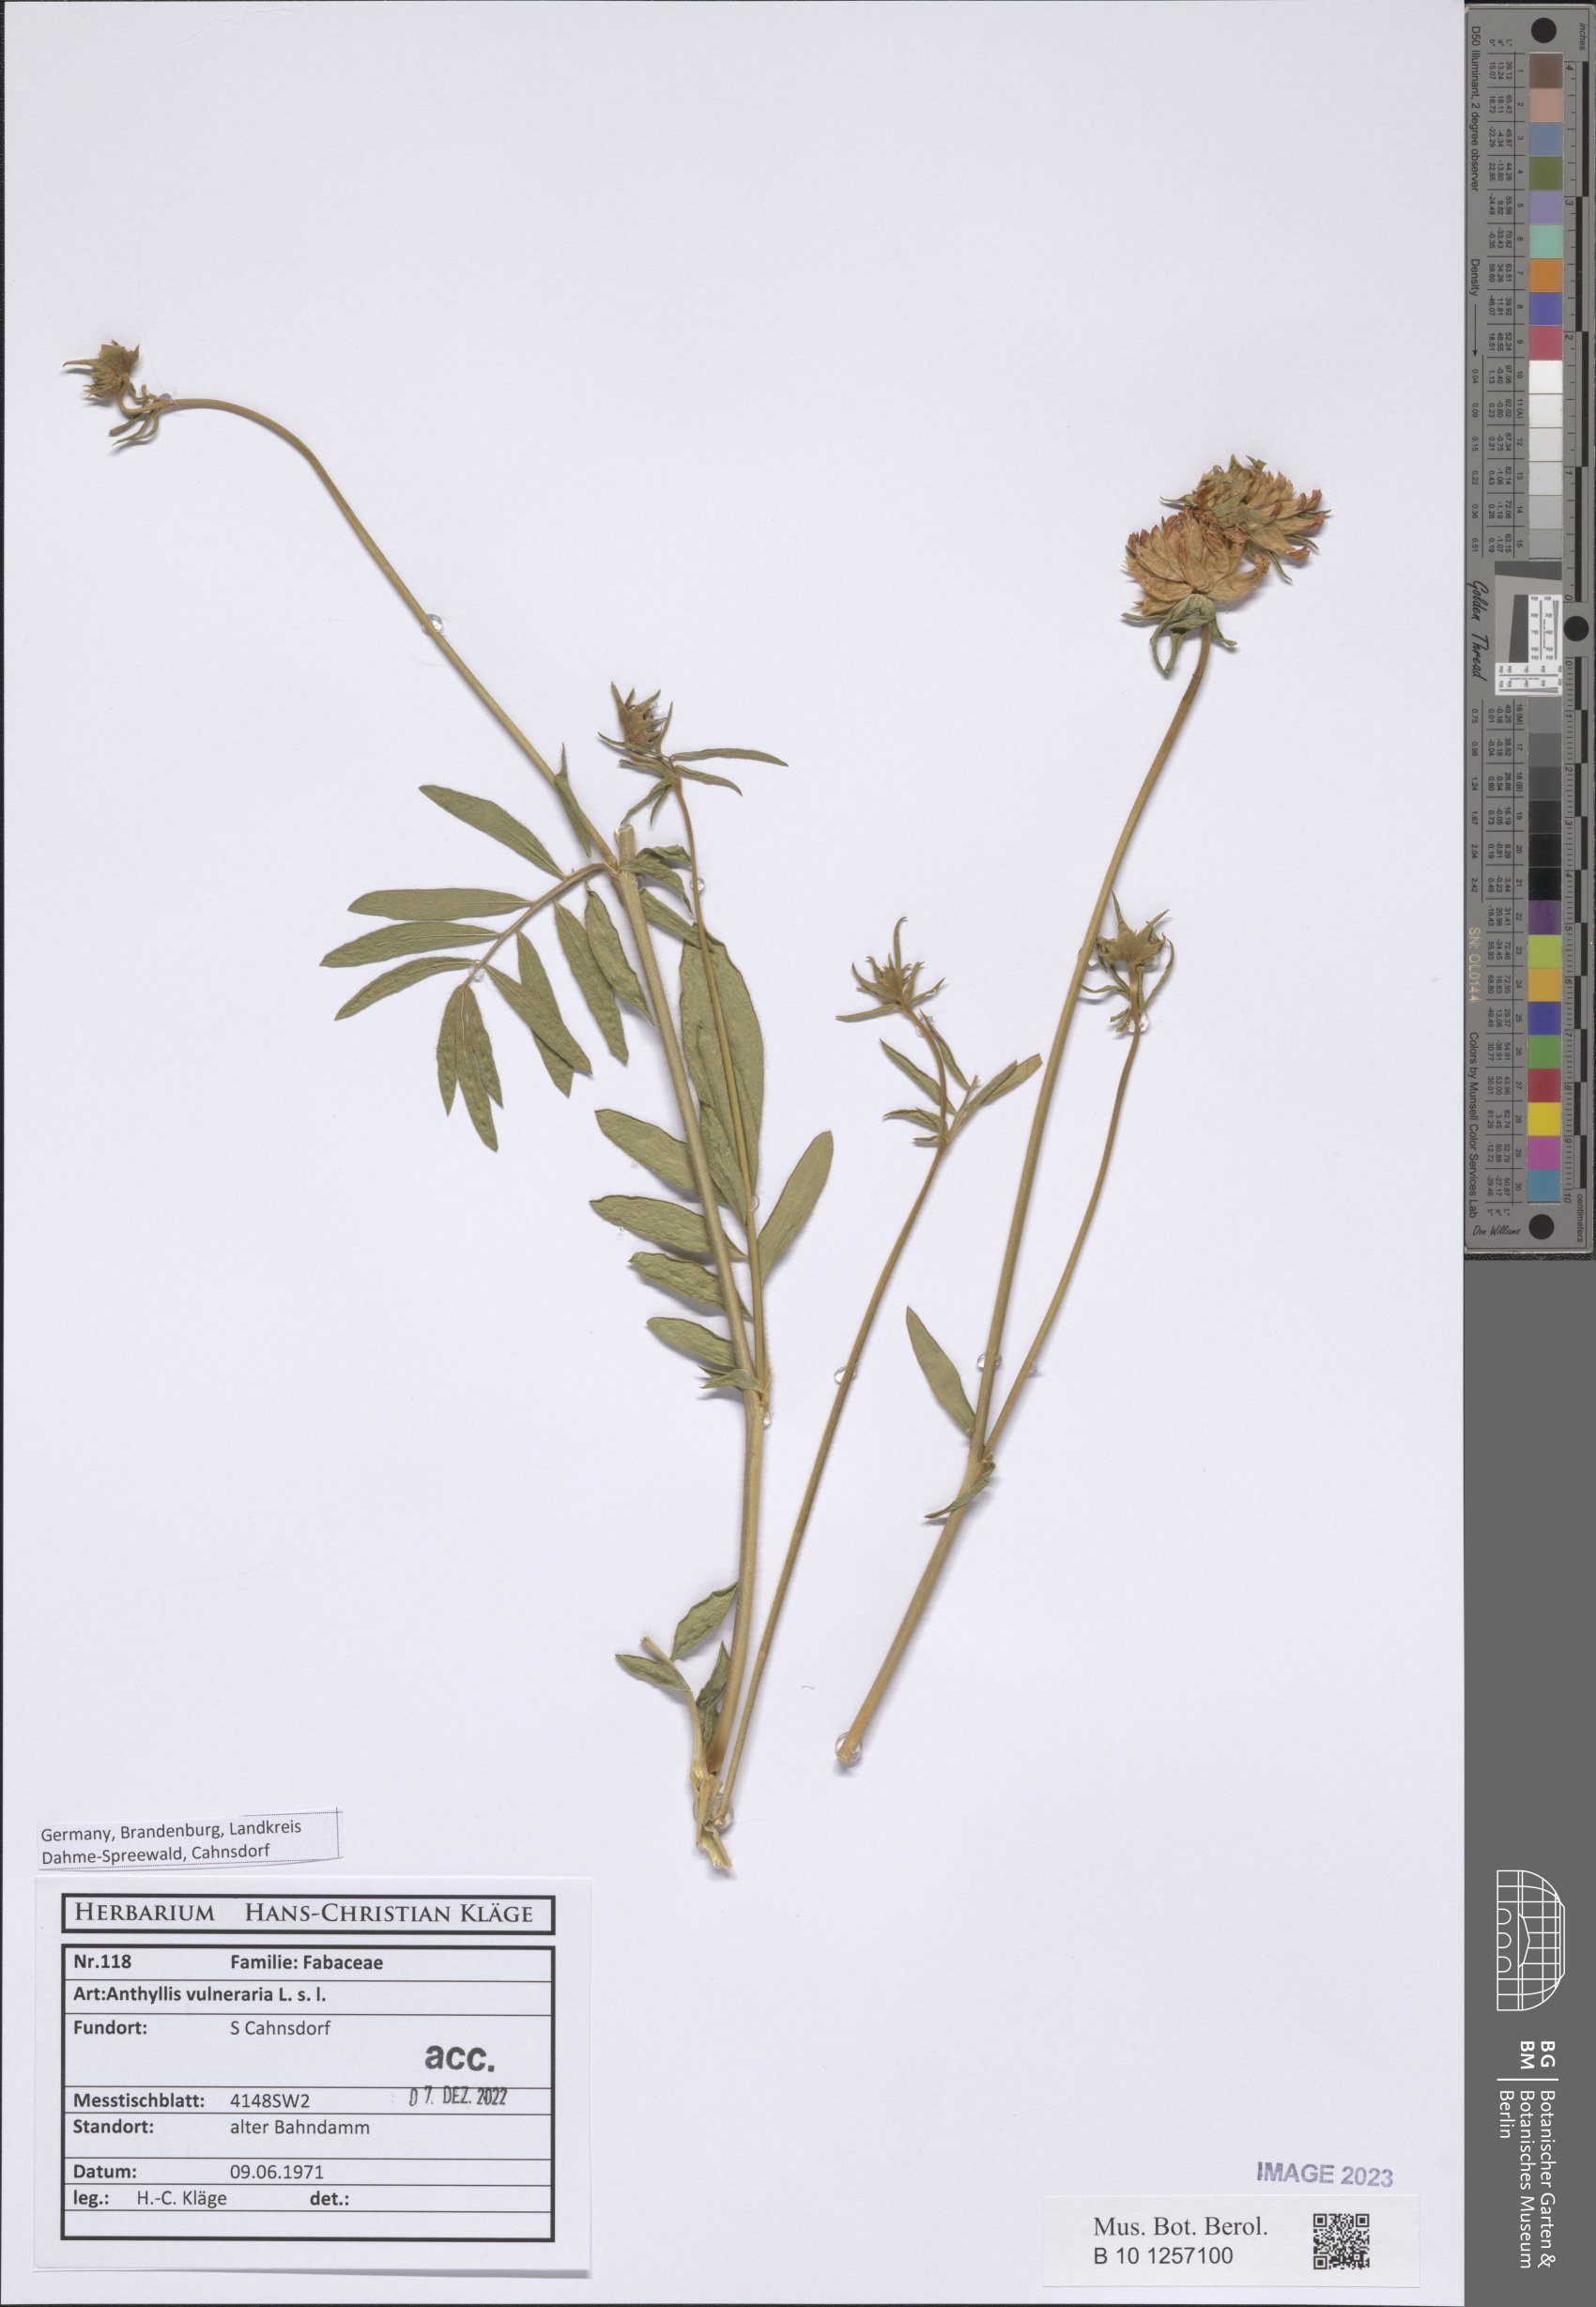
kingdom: Plantae
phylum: Tracheophyta
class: Magnoliopsida
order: Fabales
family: Fabaceae
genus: Anthyllis
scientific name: Anthyllis vulneraria
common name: Kidney vetch
